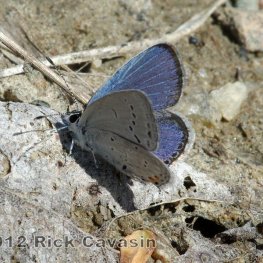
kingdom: Animalia
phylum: Arthropoda
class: Insecta
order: Lepidoptera
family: Lycaenidae
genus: Elkalyce
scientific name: Elkalyce comyntas
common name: Eastern Tailed-Blue
